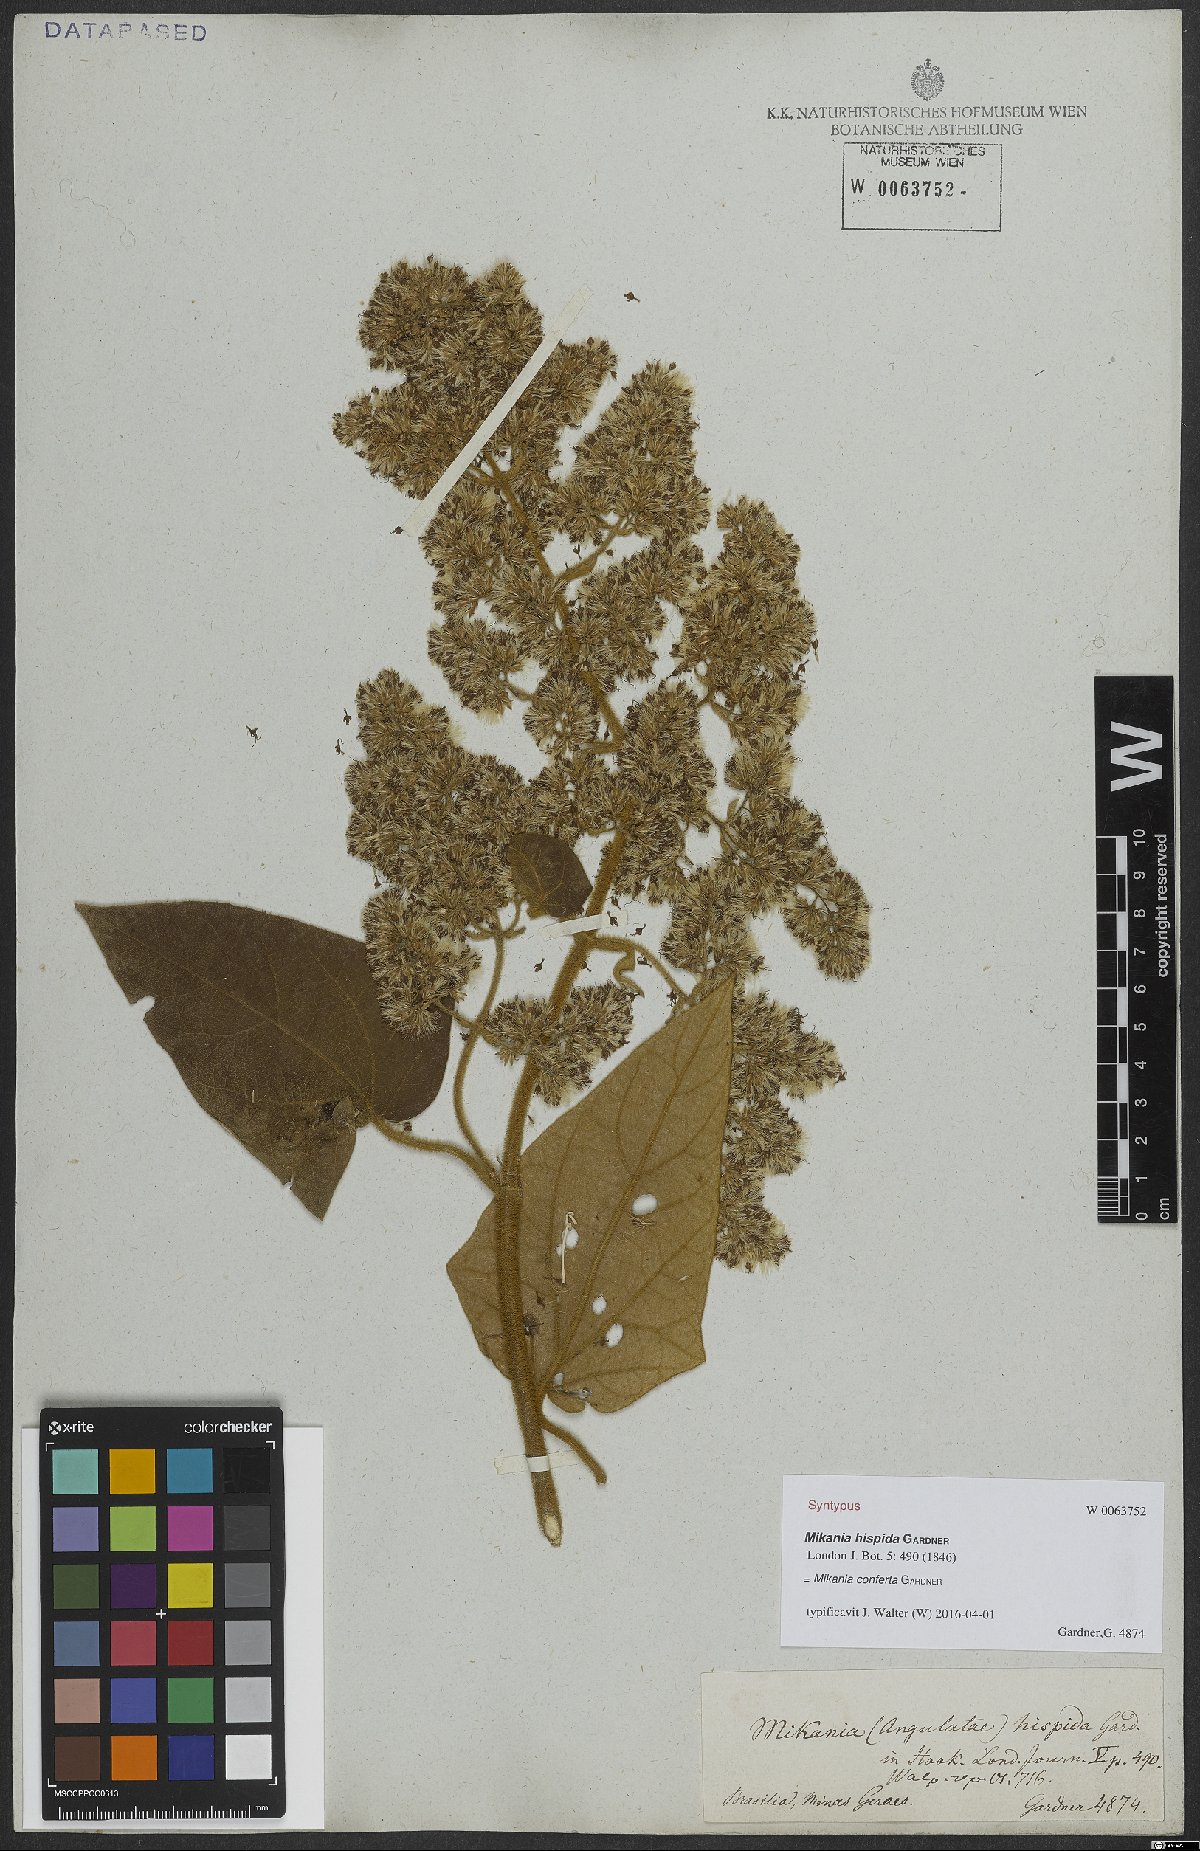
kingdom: Plantae
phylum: Tracheophyta
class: Magnoliopsida
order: Asterales
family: Asteraceae
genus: Mikania
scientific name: Mikania conferta
